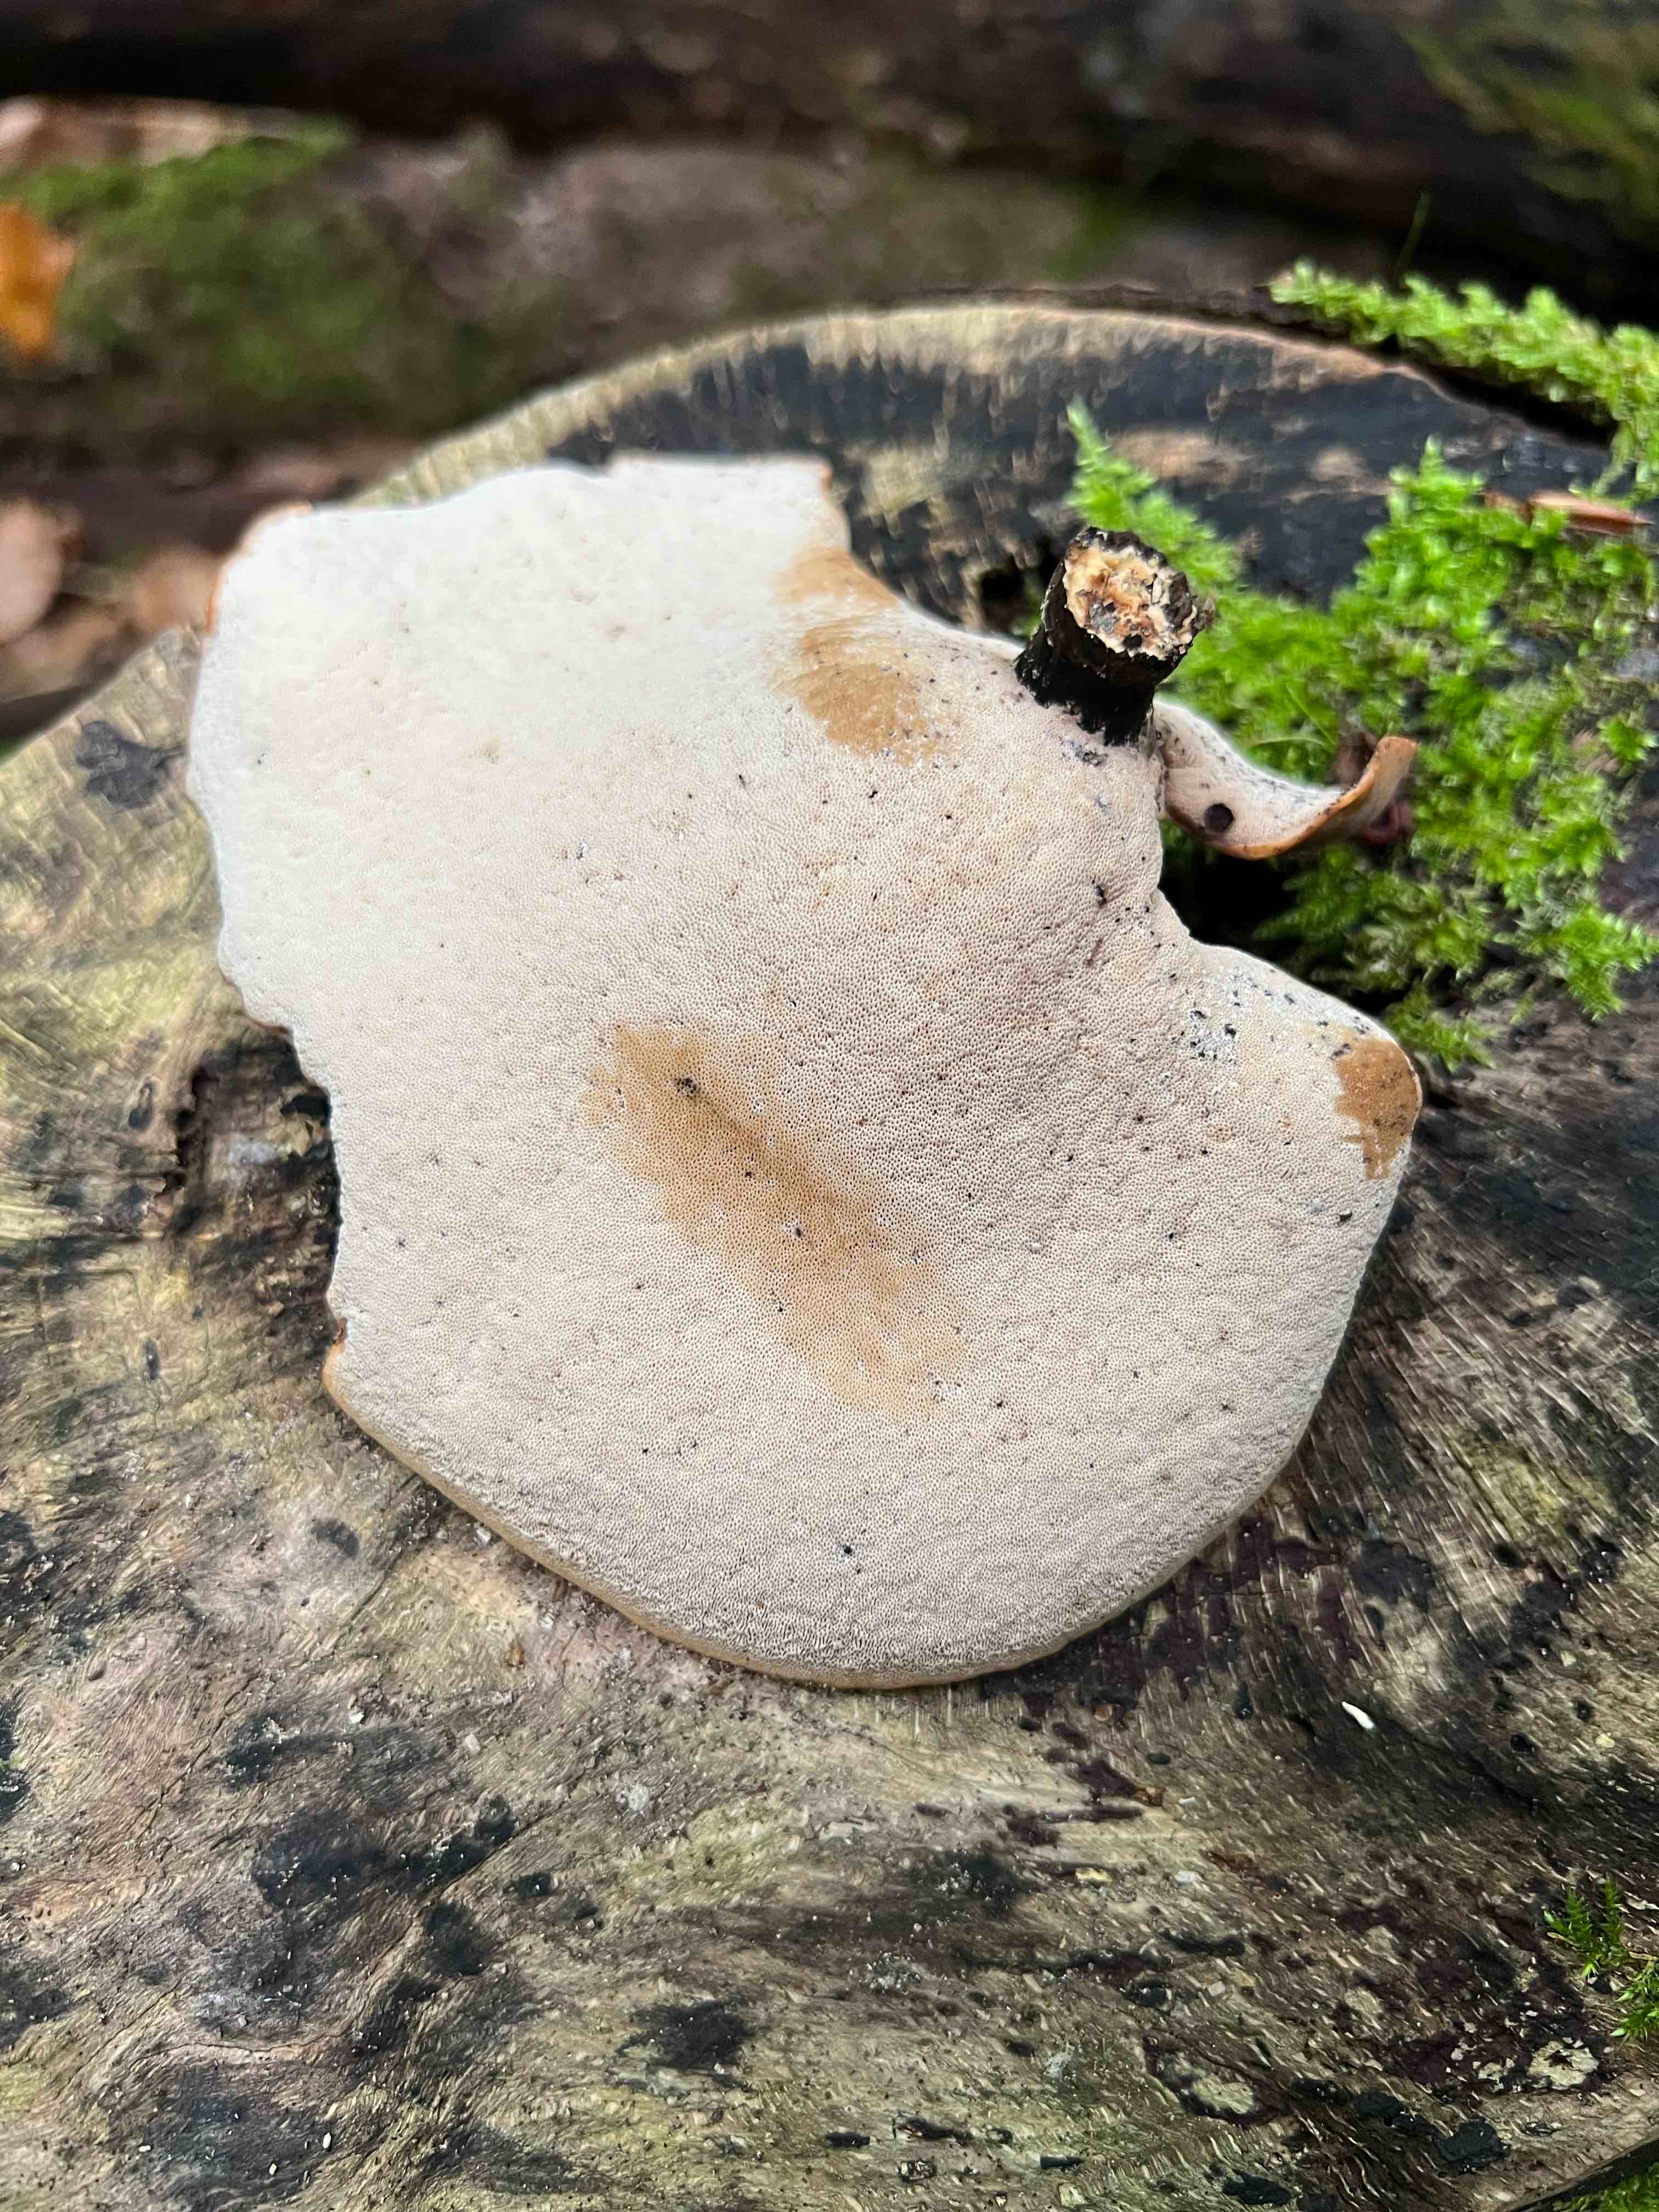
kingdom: Fungi
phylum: Basidiomycota
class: Agaricomycetes
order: Polyporales
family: Polyporaceae
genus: Cerioporus
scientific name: Cerioporus varius
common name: foranderlig stilkporesvamp
